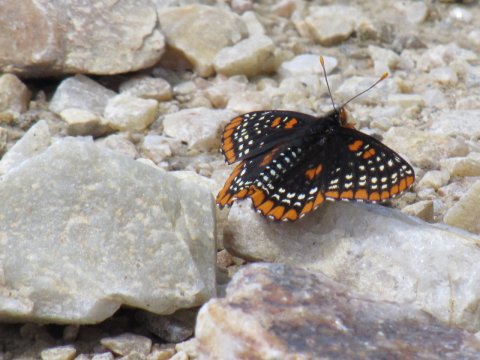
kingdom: Animalia
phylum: Arthropoda
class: Insecta
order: Lepidoptera
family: Nymphalidae
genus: Euphydryas
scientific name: Euphydryas phaeton
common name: Baltimore Checkerspot
